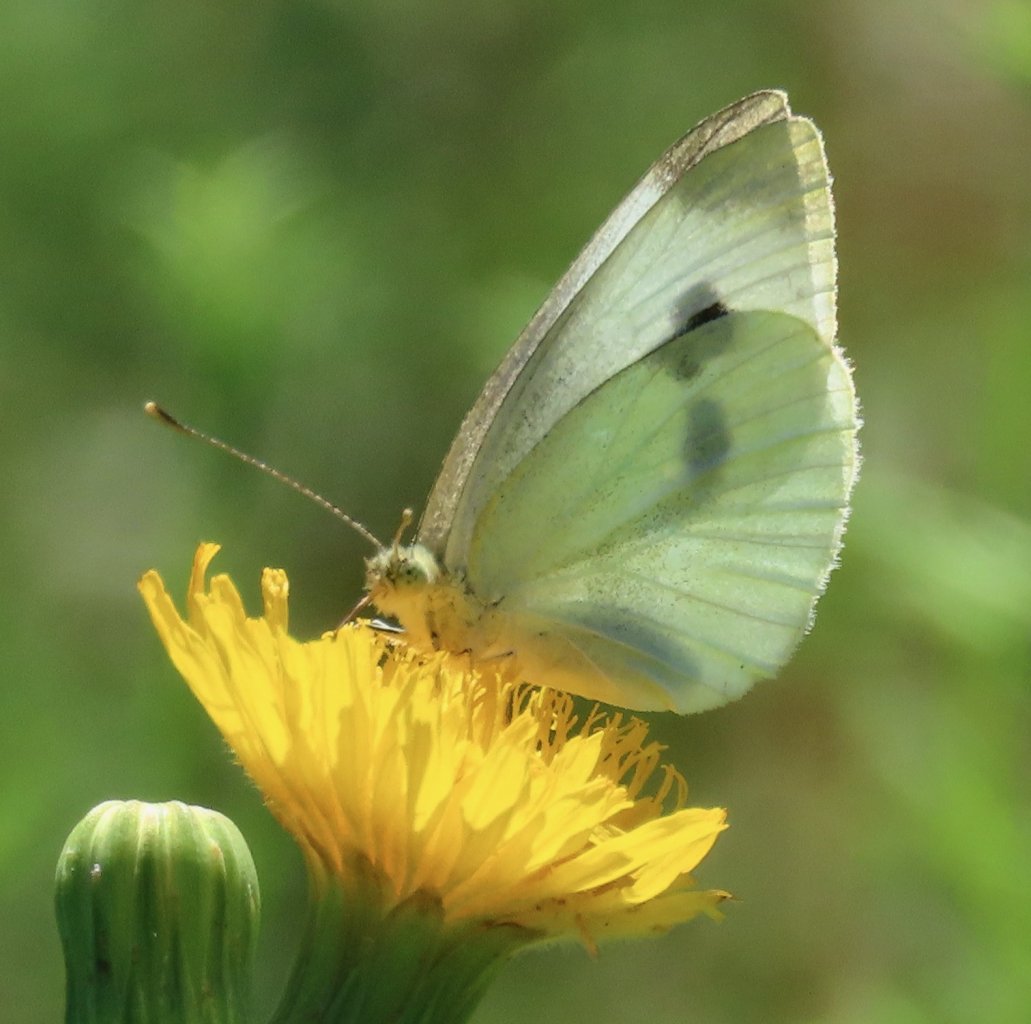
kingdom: Animalia
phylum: Arthropoda
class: Insecta
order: Lepidoptera
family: Pieridae
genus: Pieris
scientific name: Pieris rapae
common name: Cabbage White
